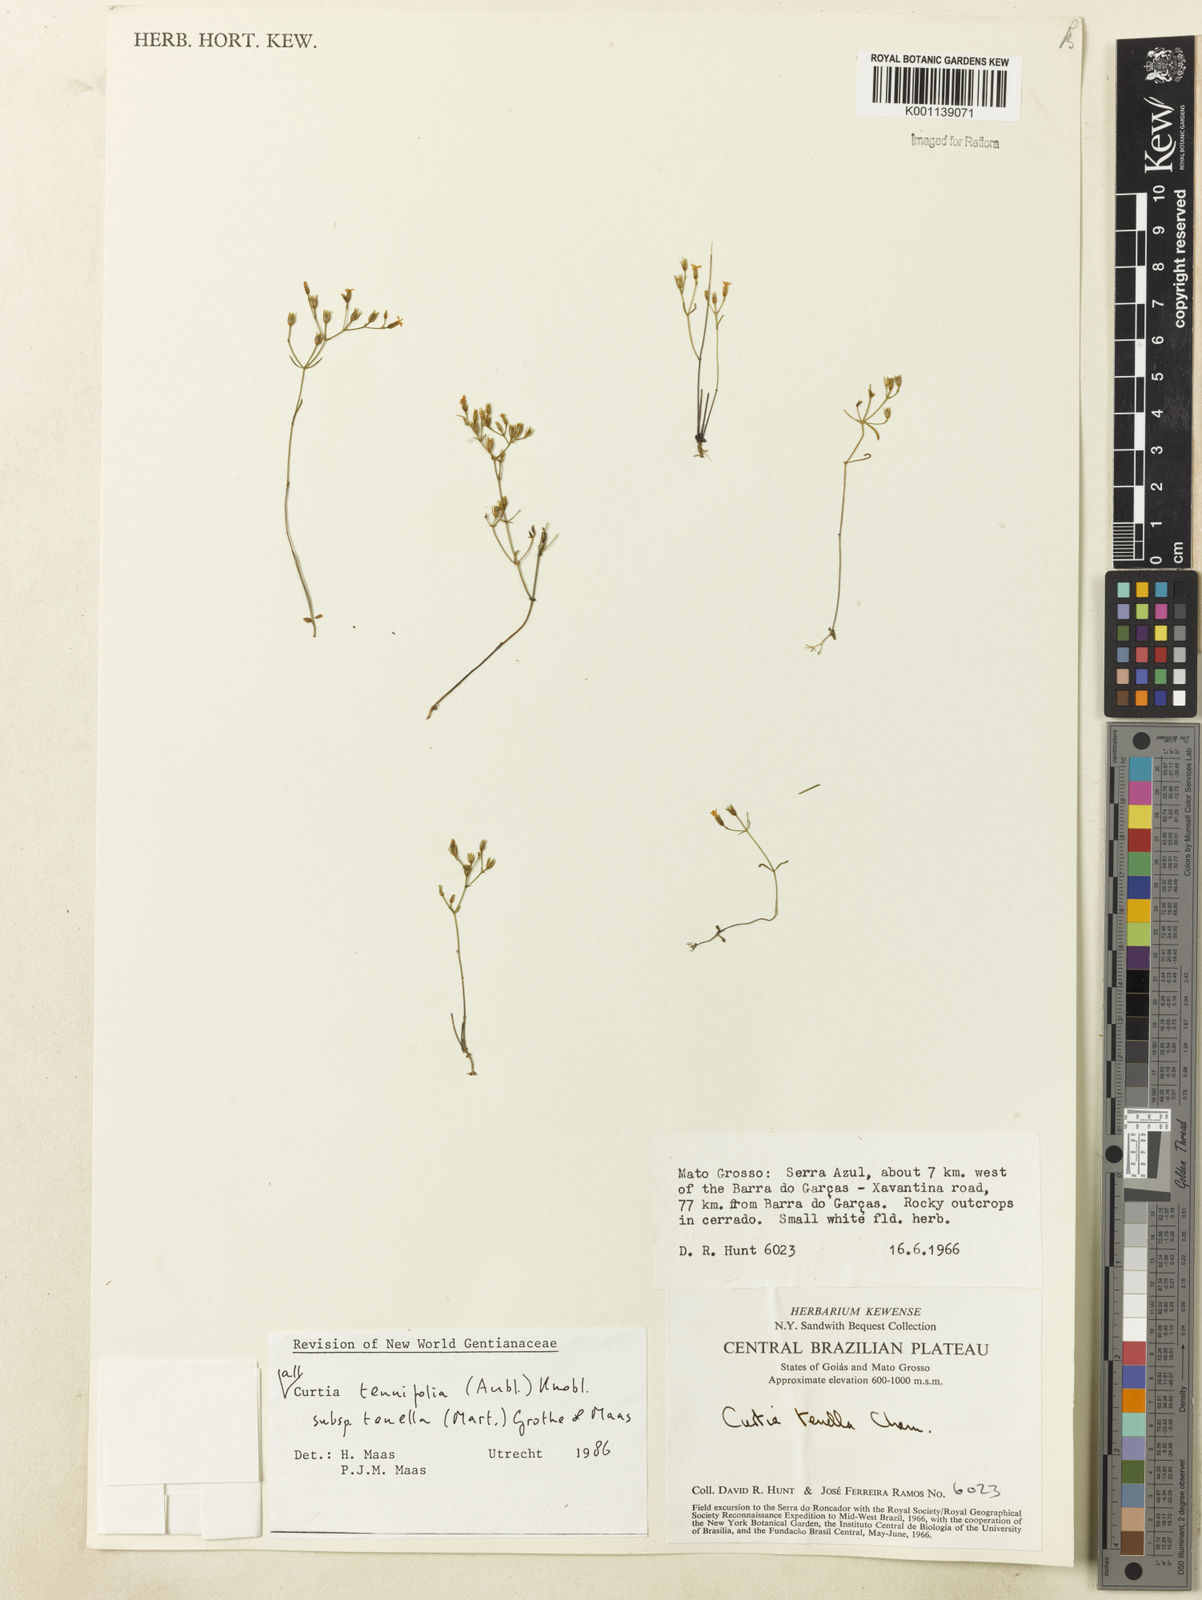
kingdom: Plantae
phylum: Tracheophyta
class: Magnoliopsida
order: Gentianales
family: Gentianaceae
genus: Curtia
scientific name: Curtia tenella
